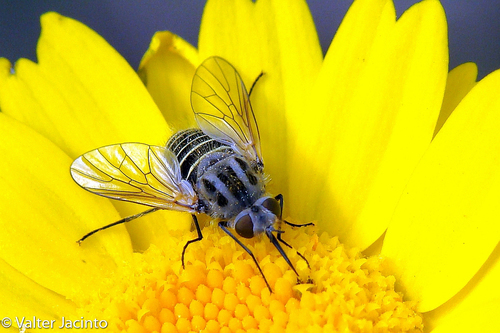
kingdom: Animalia
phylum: Arthropoda
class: Insecta
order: Diptera
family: Bombyliidae
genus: Protypusia
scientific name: Protypusia incisa
